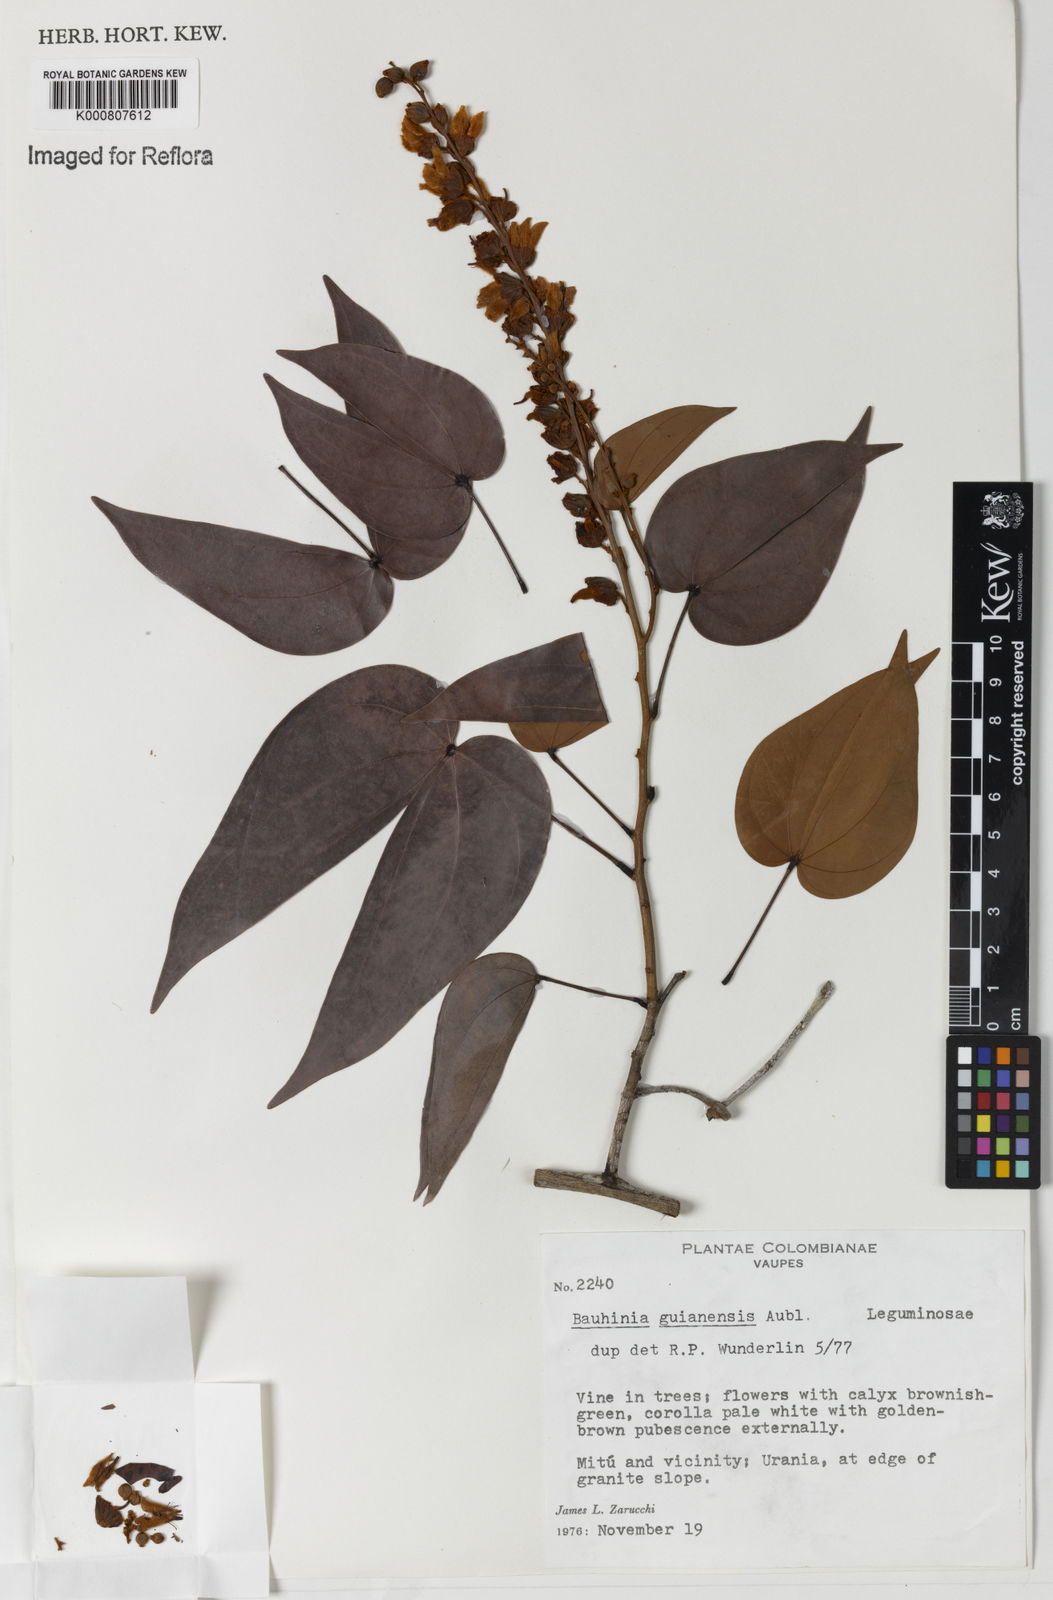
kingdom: Plantae
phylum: Tracheophyta
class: Magnoliopsida
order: Fabales
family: Fabaceae
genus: Schnella
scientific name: Schnella guianensis
